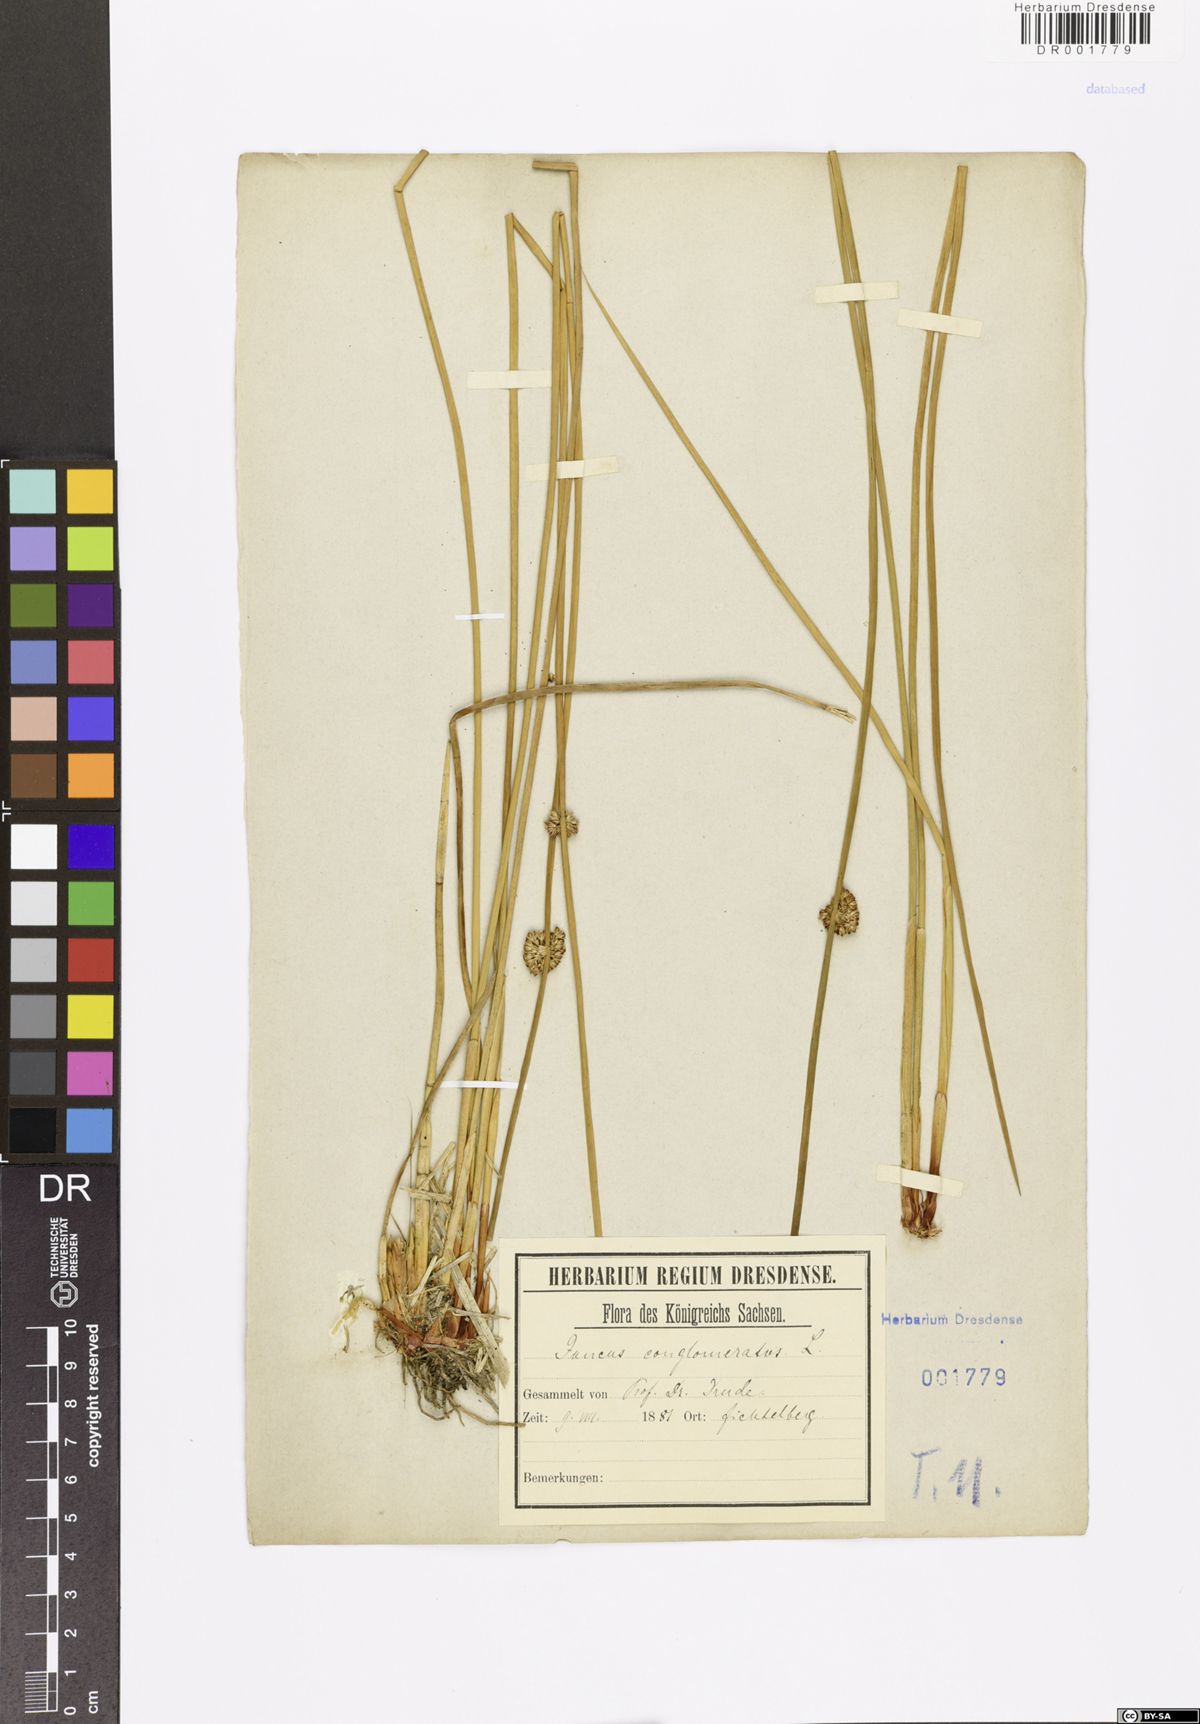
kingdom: Plantae
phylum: Tracheophyta
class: Liliopsida
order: Poales
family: Juncaceae
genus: Juncus
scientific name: Juncus conglomeratus
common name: Compact rush
